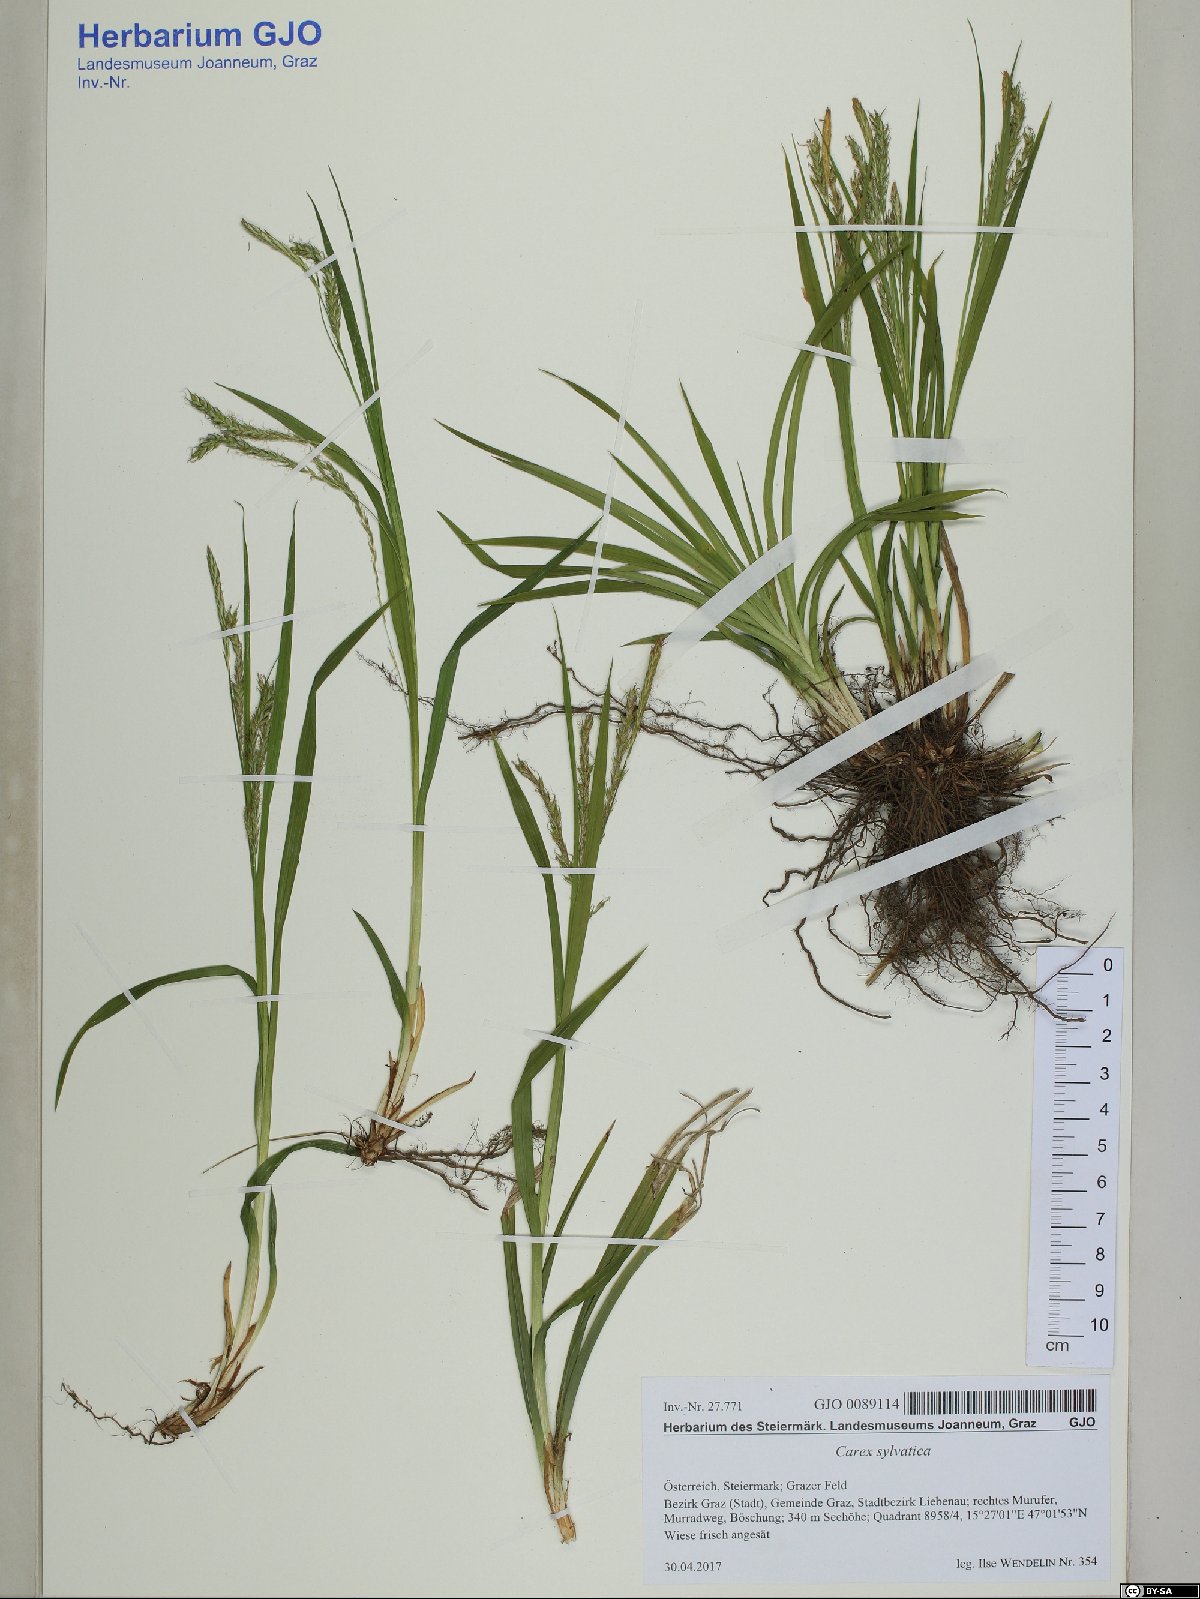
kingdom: Plantae
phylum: Tracheophyta
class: Liliopsida
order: Poales
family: Cyperaceae
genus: Carex
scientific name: Carex sylvatica
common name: Wood-sedge
